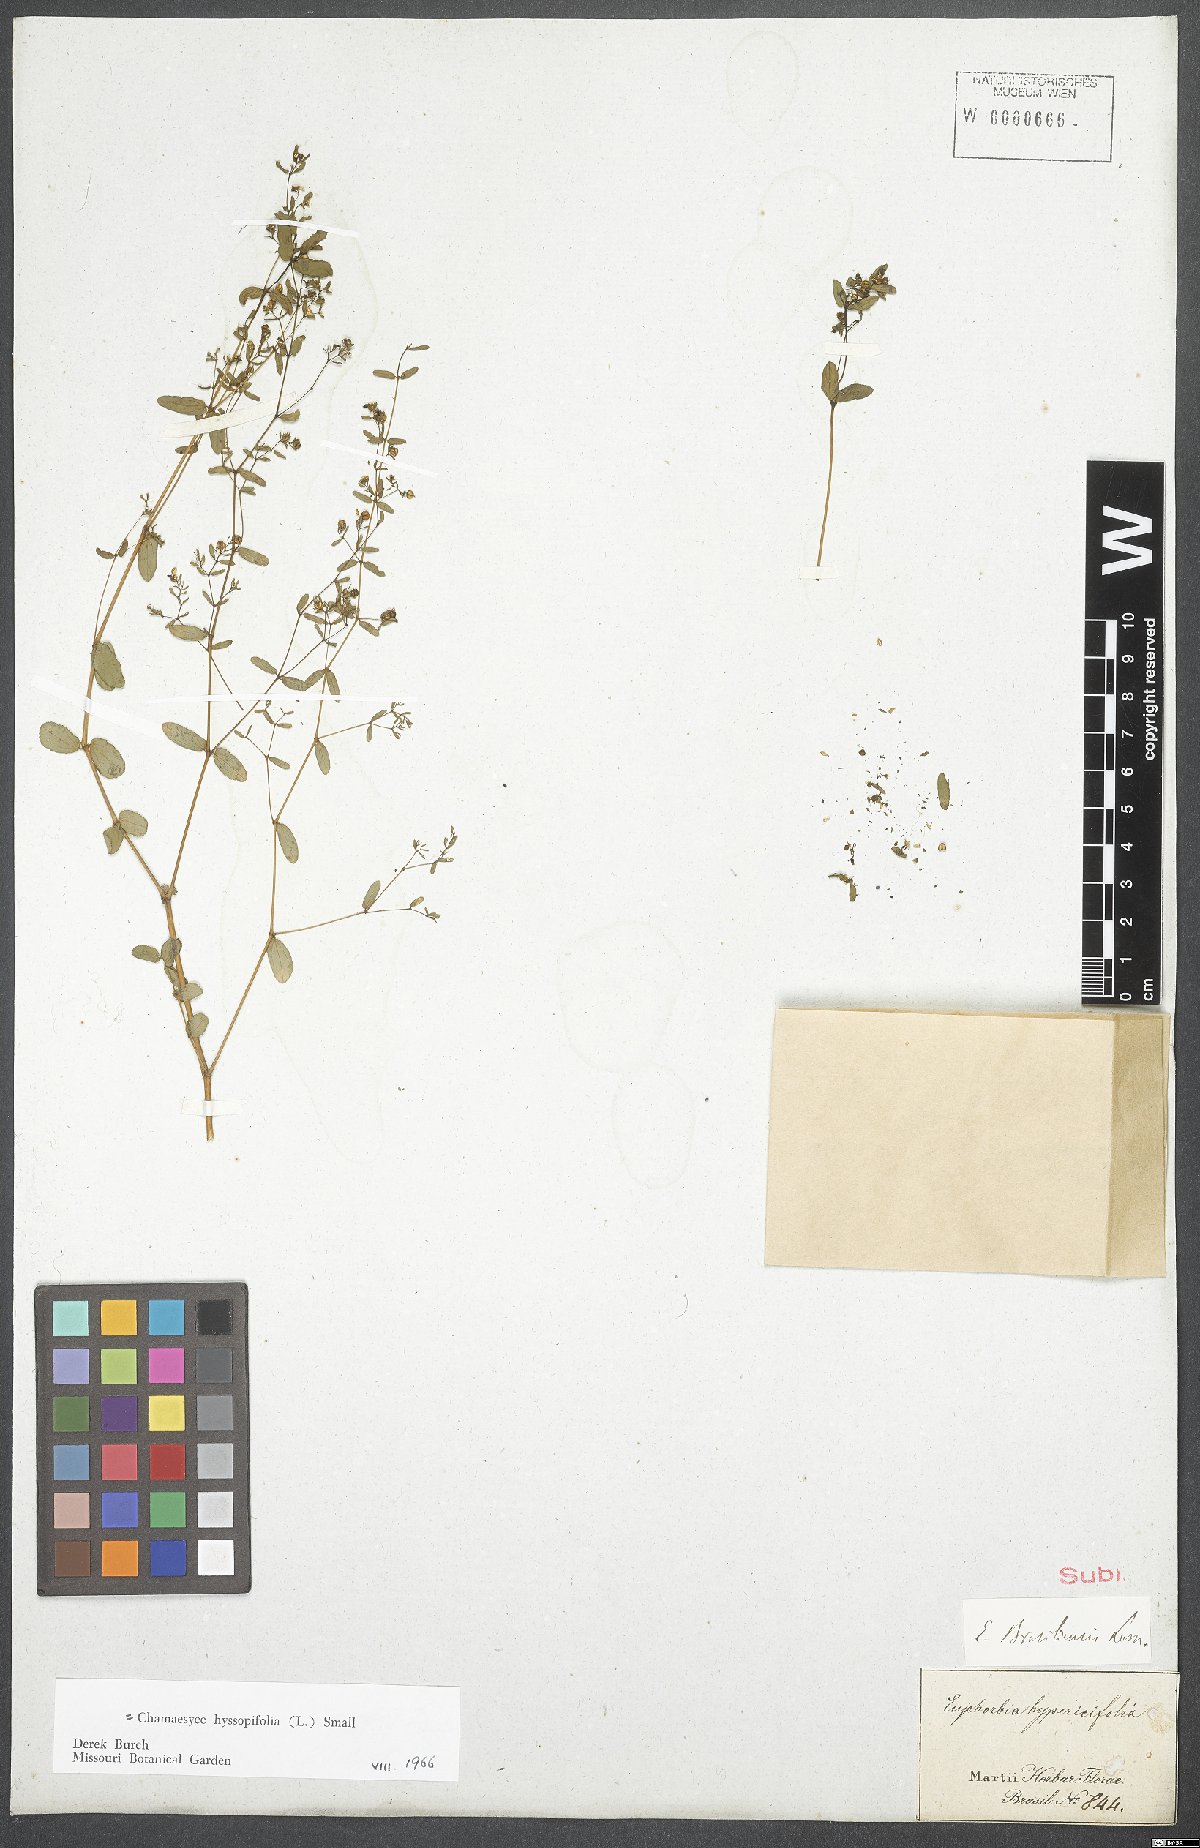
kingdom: Plantae
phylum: Tracheophyta
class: Magnoliopsida
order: Malpighiales
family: Euphorbiaceae
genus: Euphorbia
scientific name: Euphorbia hyssopifolia
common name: Hyssopleaf sandmat
